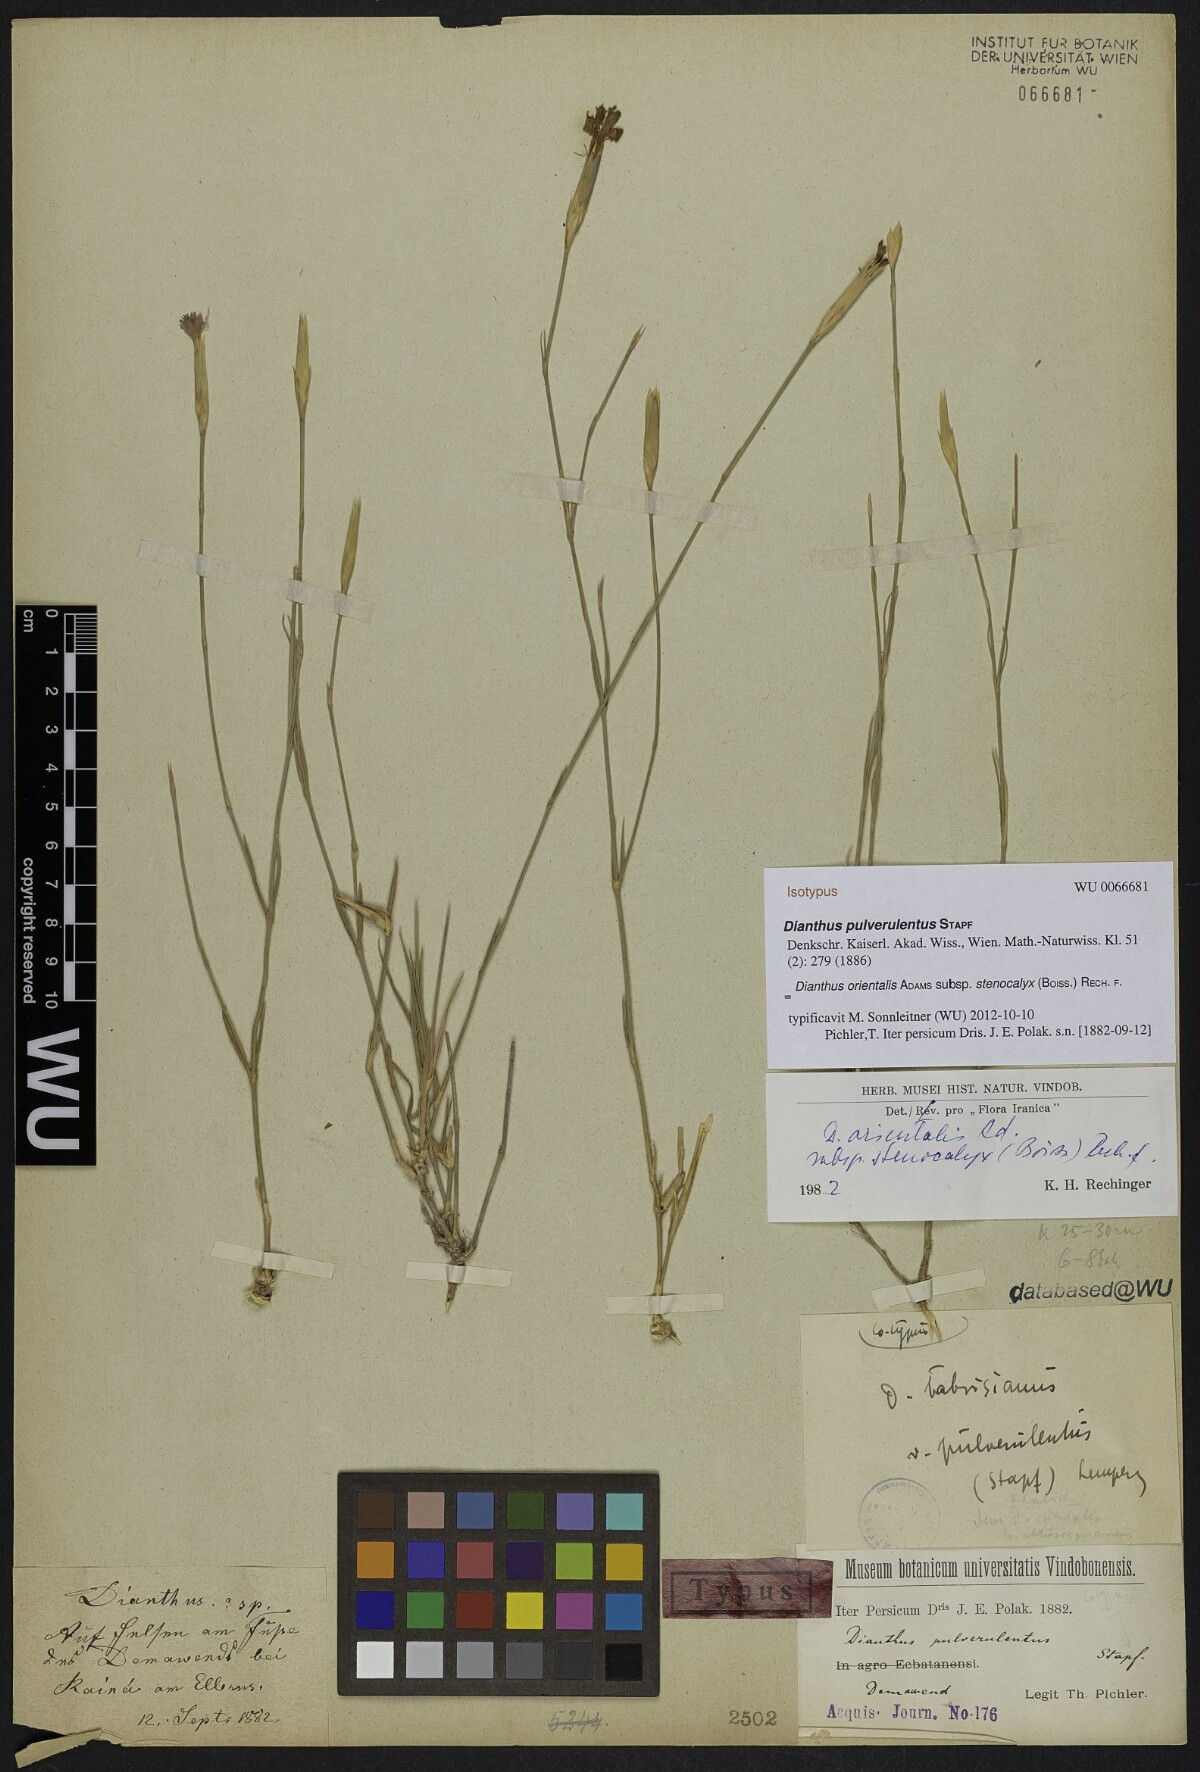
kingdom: Plantae
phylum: Tracheophyta
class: Magnoliopsida
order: Caryophyllales
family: Caryophyllaceae
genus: Dianthus
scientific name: Dianthus orientalis
